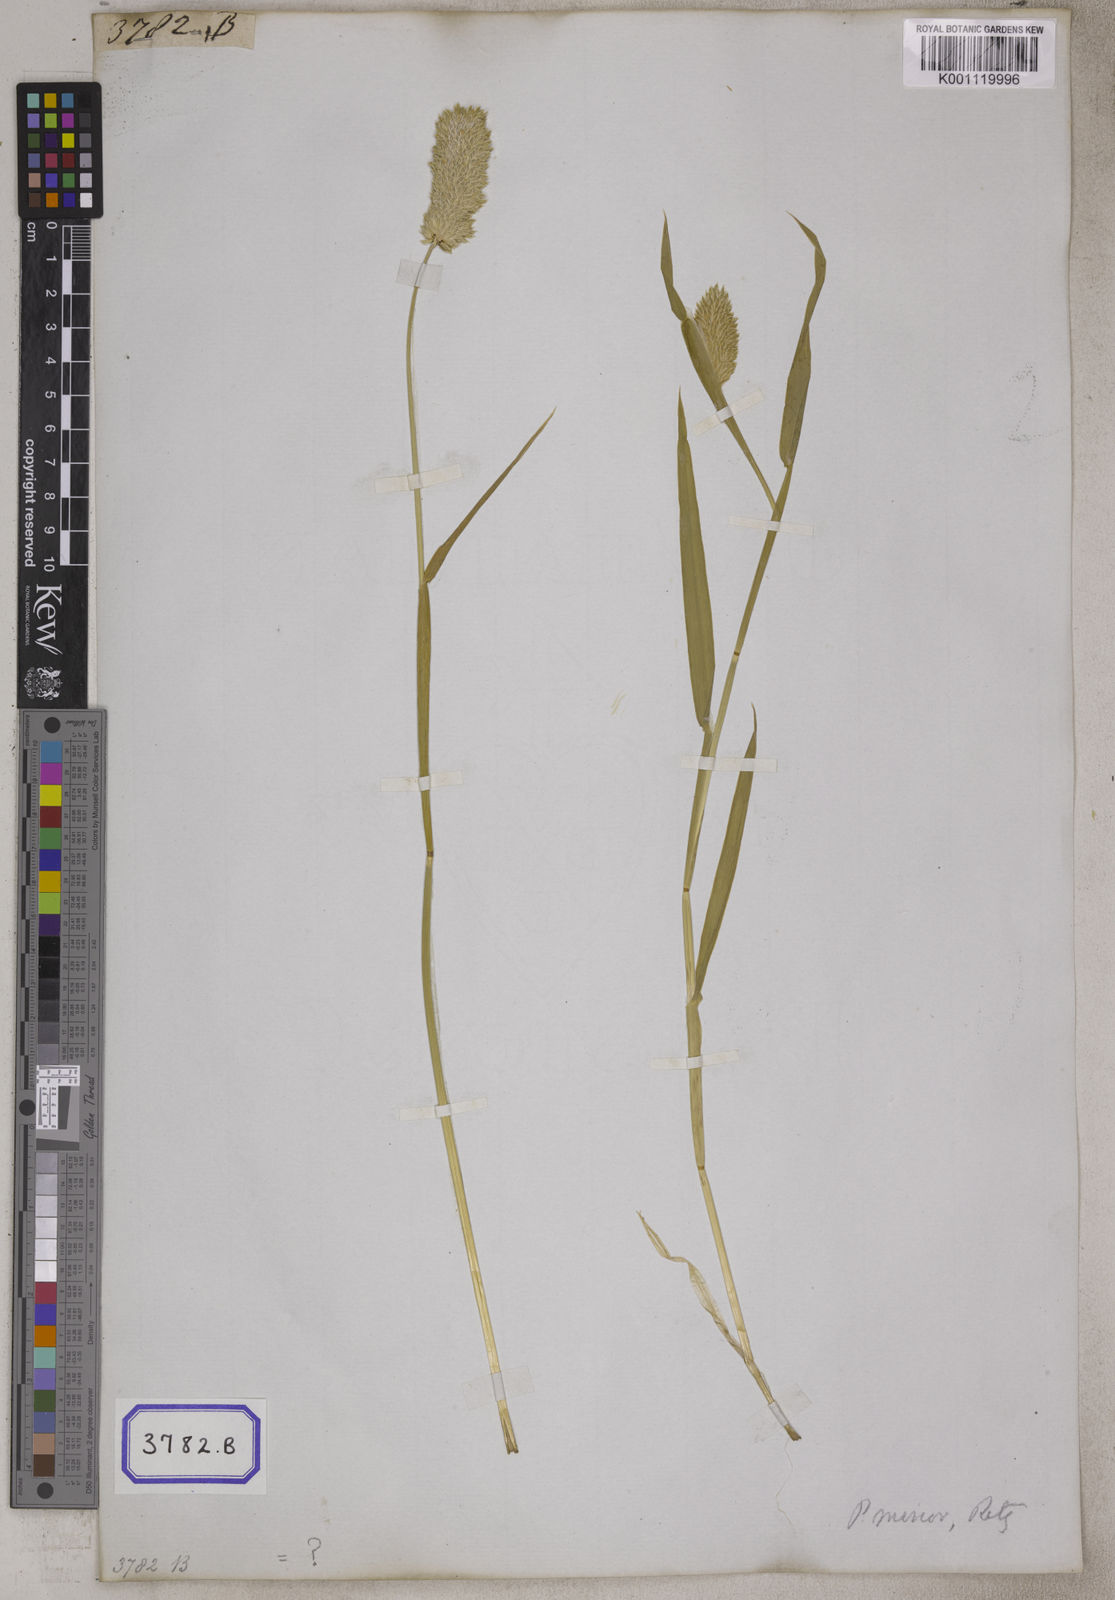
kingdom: Plantae
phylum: Tracheophyta
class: Liliopsida
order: Poales
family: Poaceae
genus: Phalaris
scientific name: Phalaris canariensis
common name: Annual canarygrass
